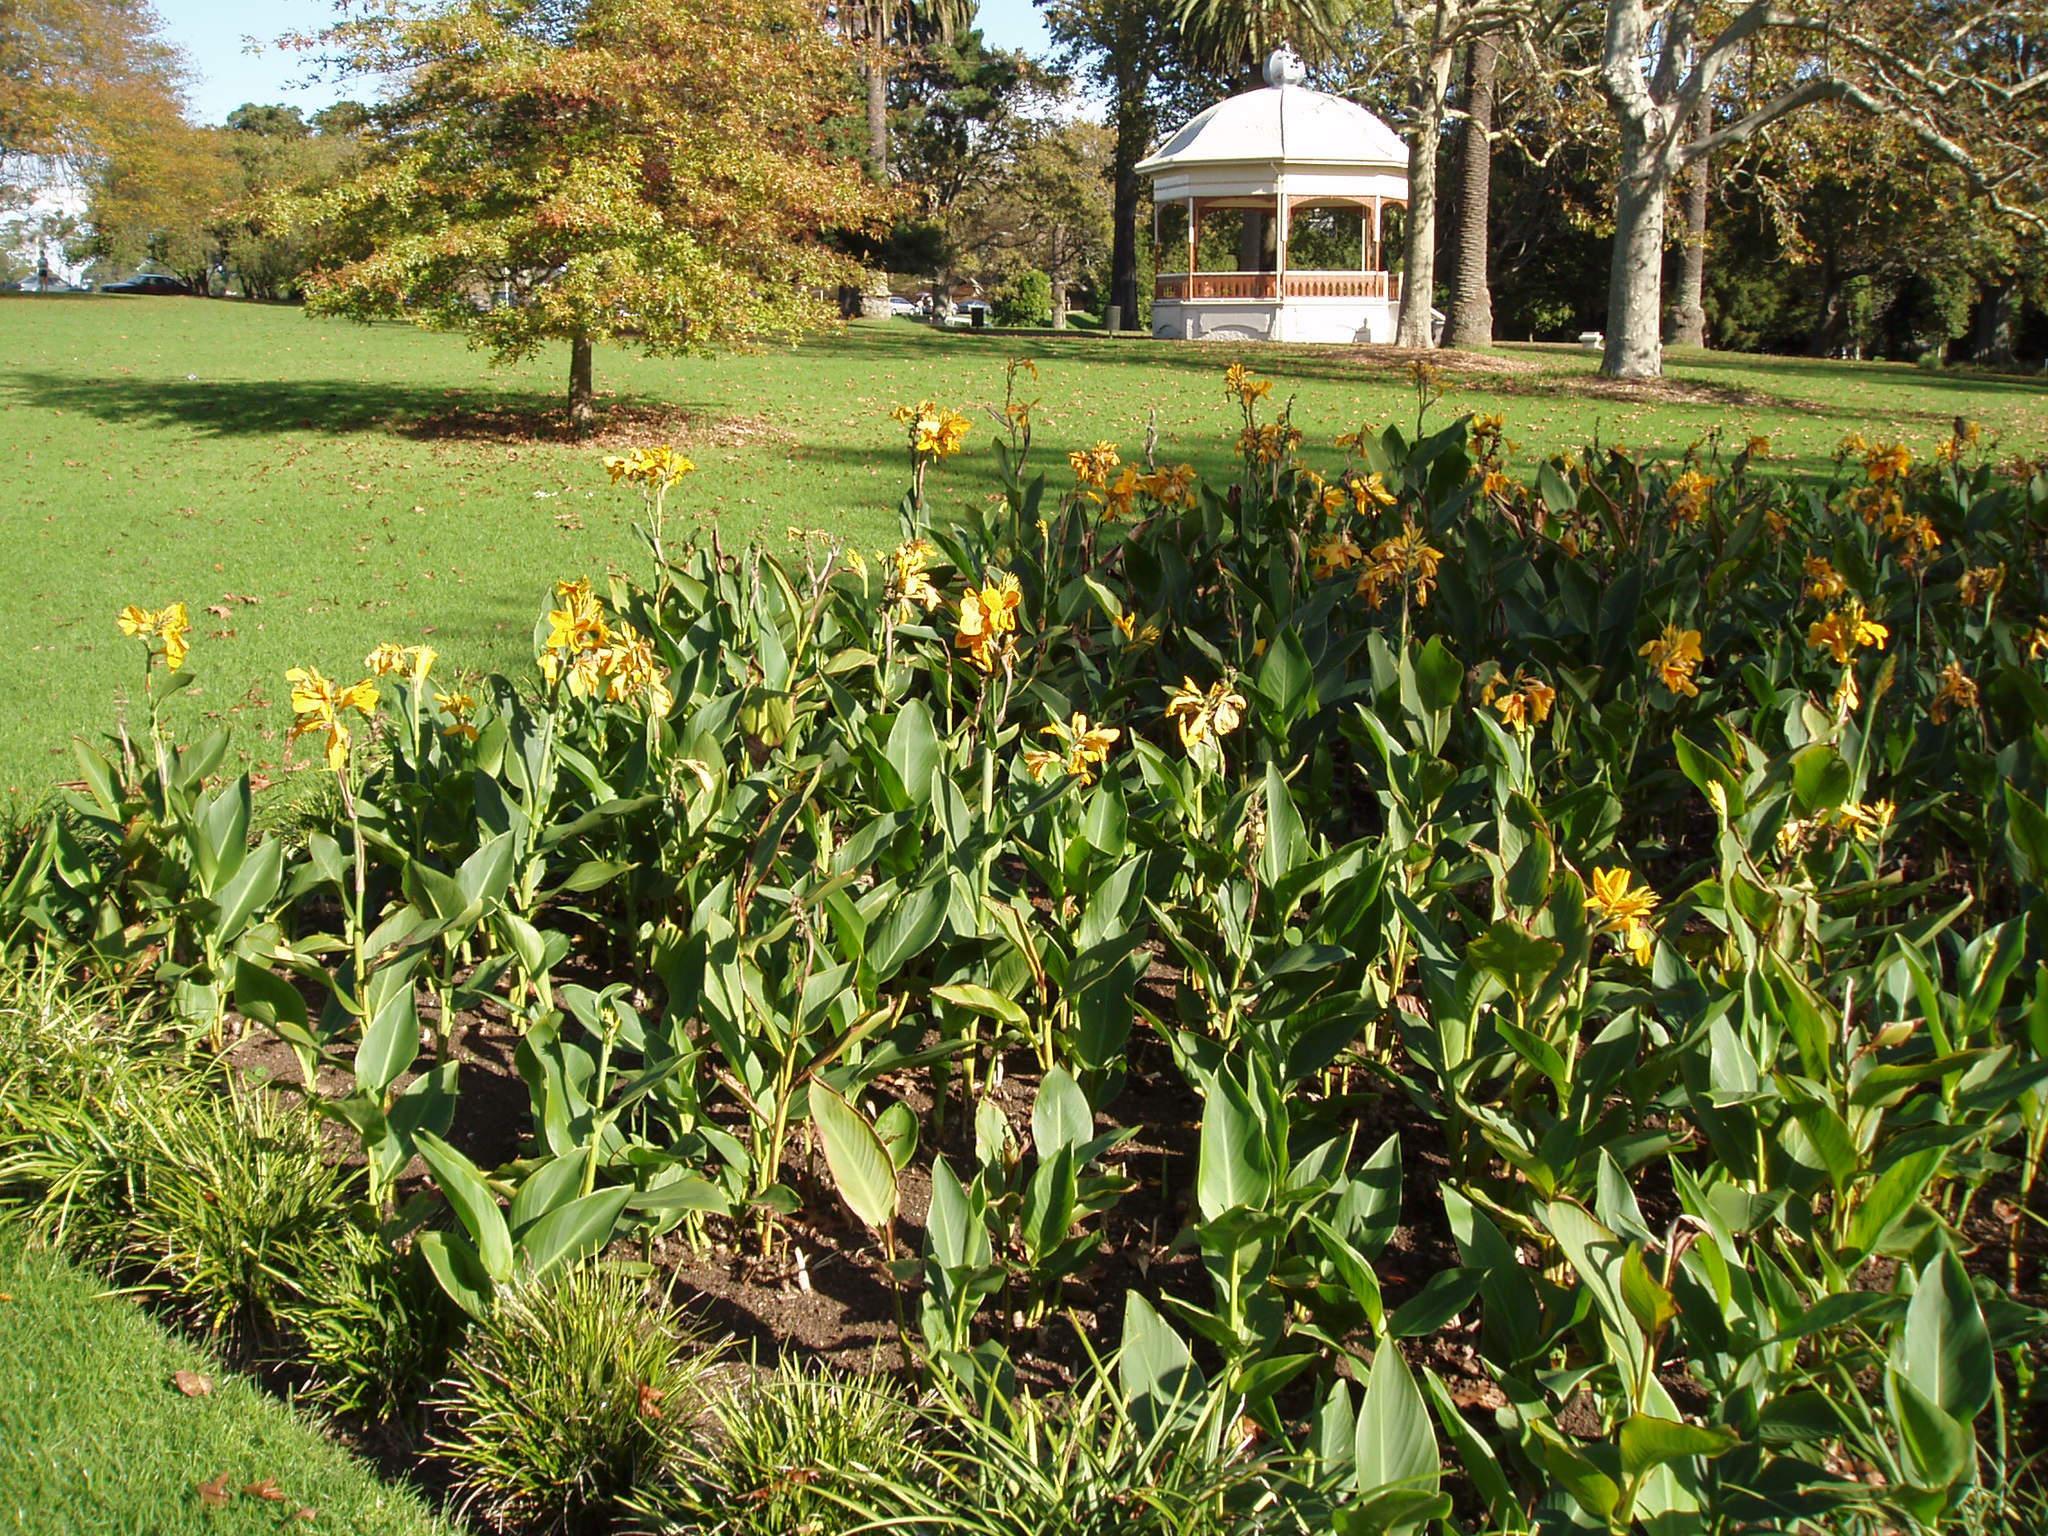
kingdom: Plantae
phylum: Tracheophyta
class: Liliopsida
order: Zingiberales
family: Cannaceae
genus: Canna
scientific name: Canna
